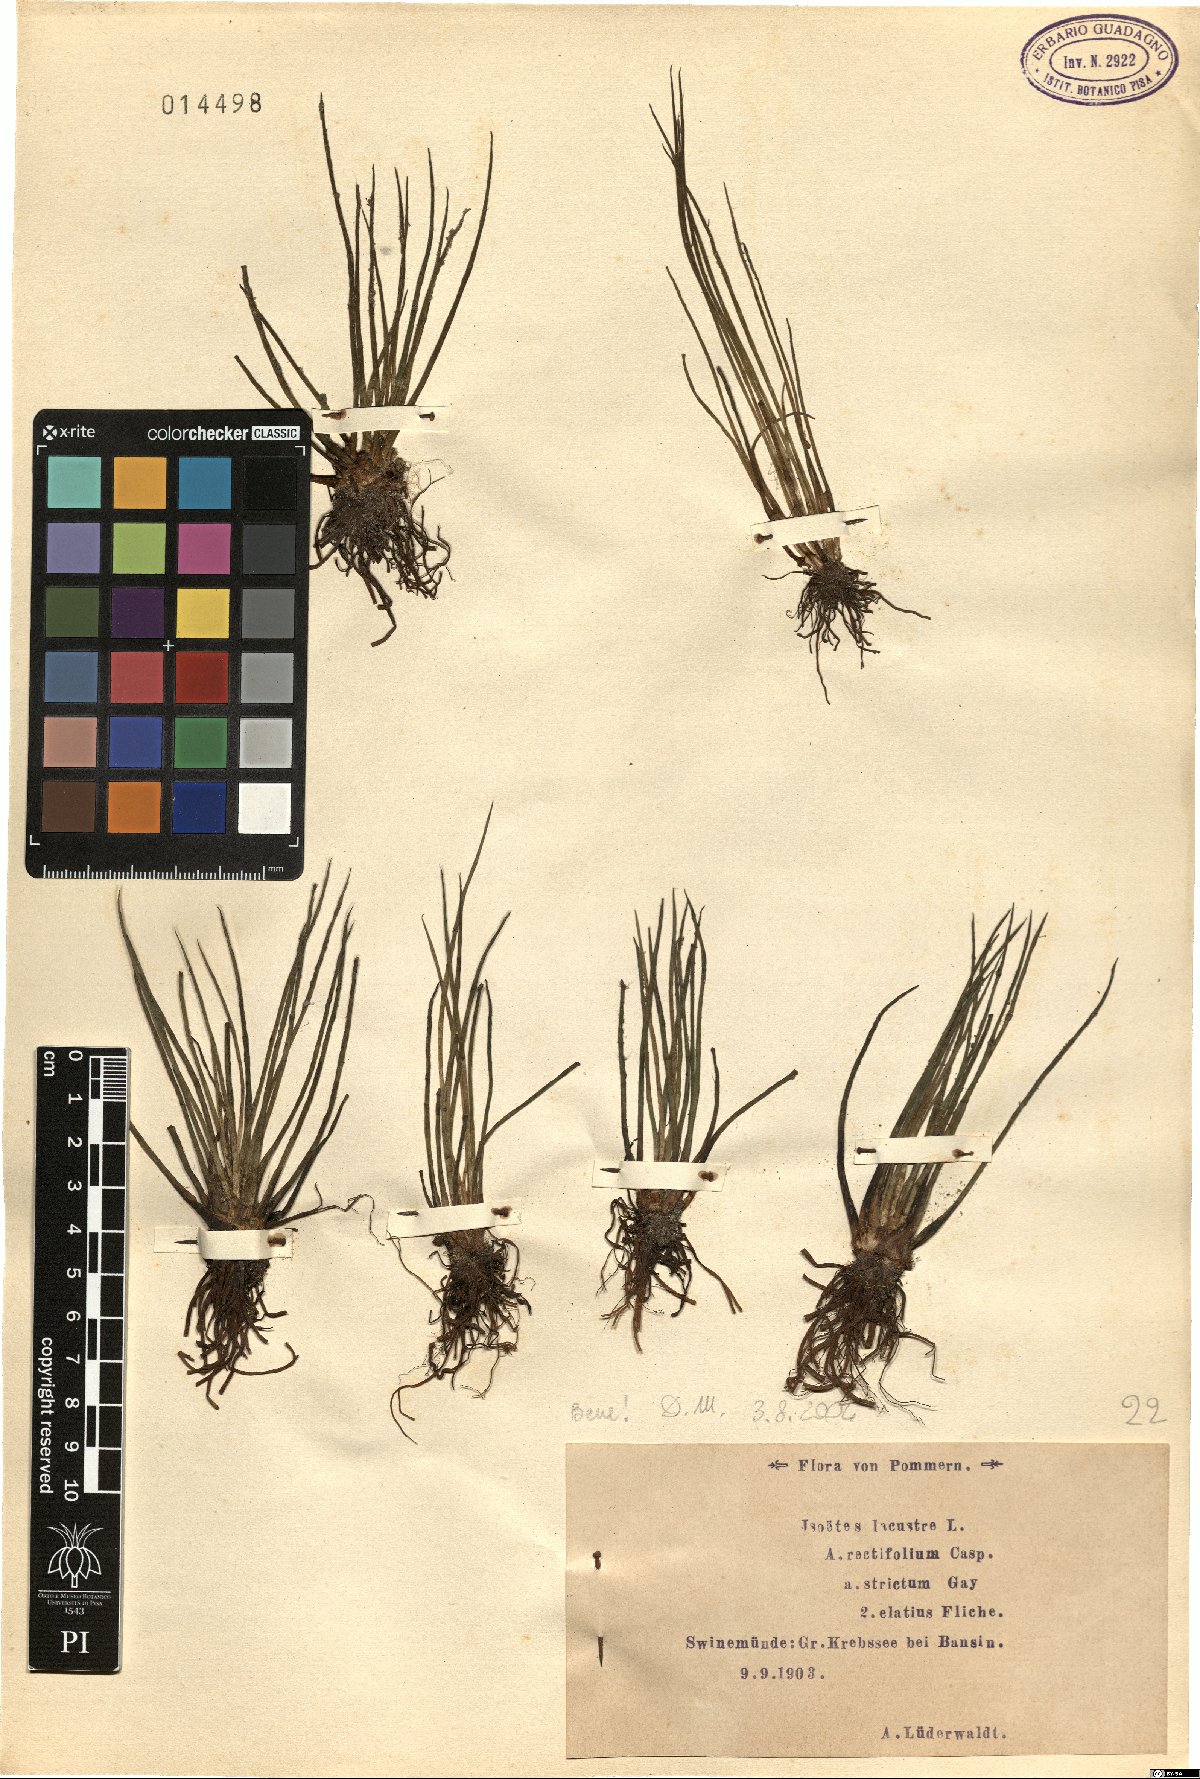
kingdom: Plantae
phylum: Tracheophyta
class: Lycopodiopsida
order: Isoetales
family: Isoetaceae
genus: Isoetes
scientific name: Isoetes lacustris
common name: Common quillwort
